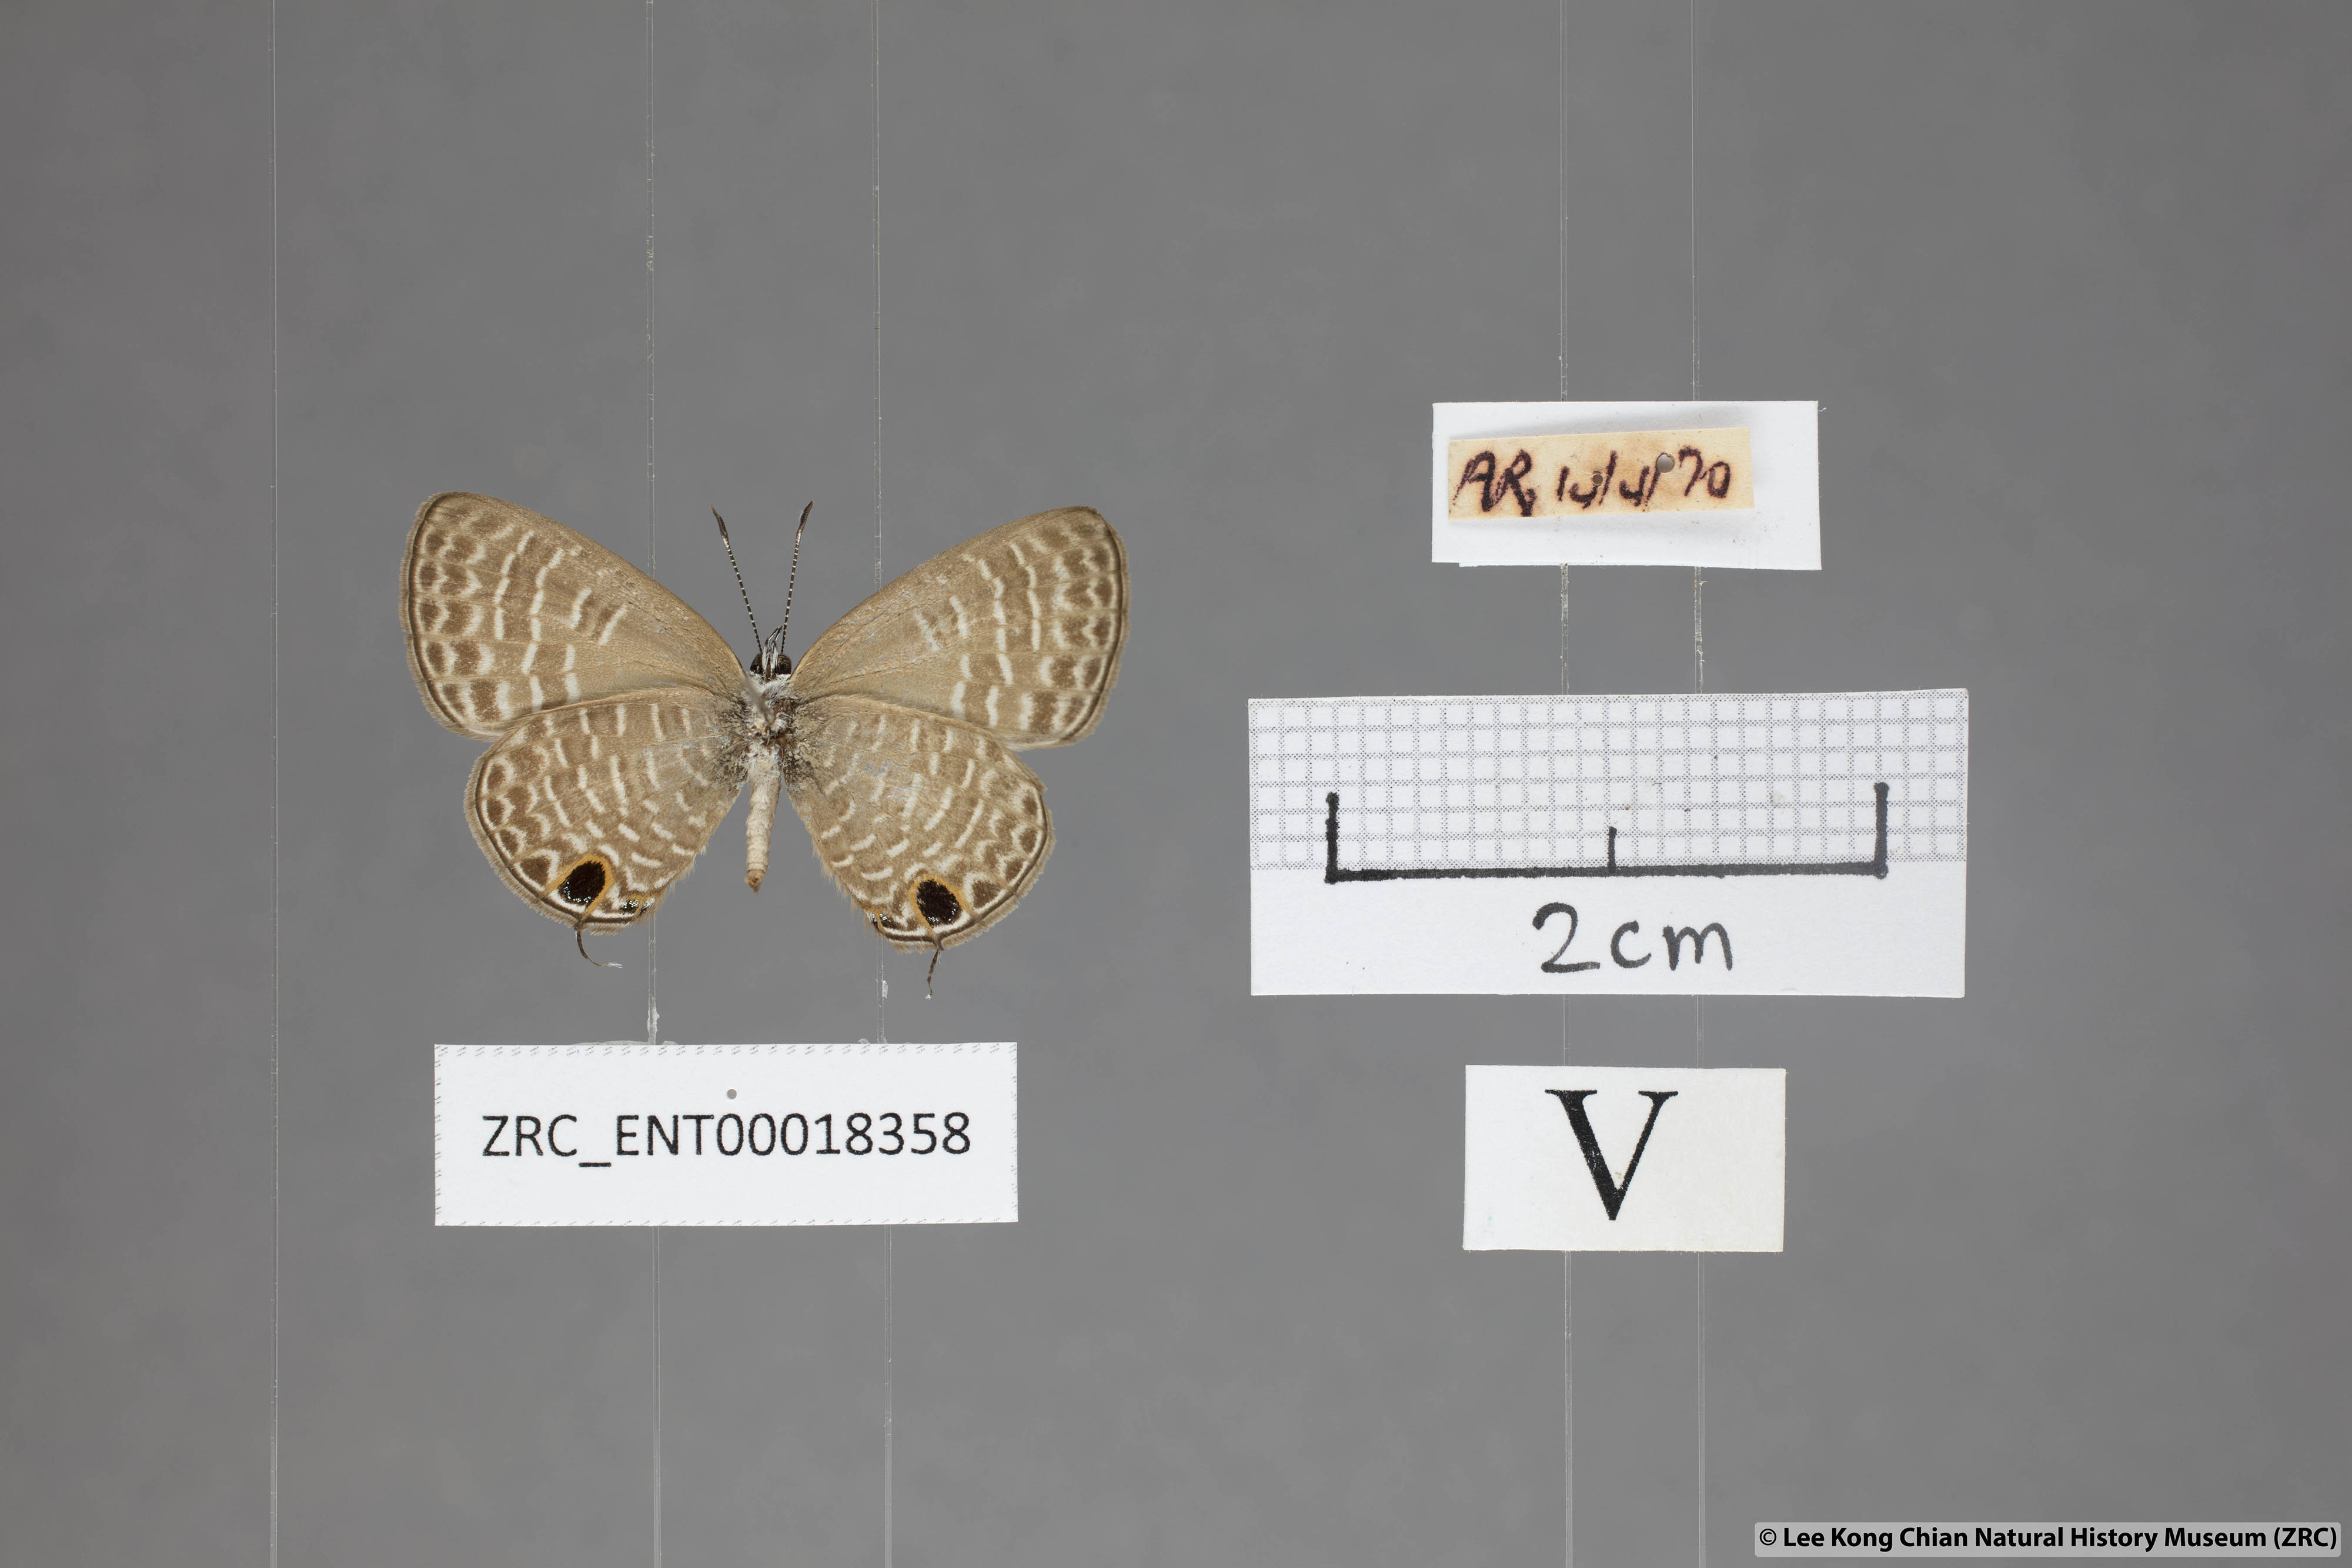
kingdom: Animalia
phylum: Arthropoda
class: Insecta
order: Lepidoptera
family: Lycaenidae
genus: Nacaduba
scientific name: Nacaduba hermus
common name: Pale four-line blue
